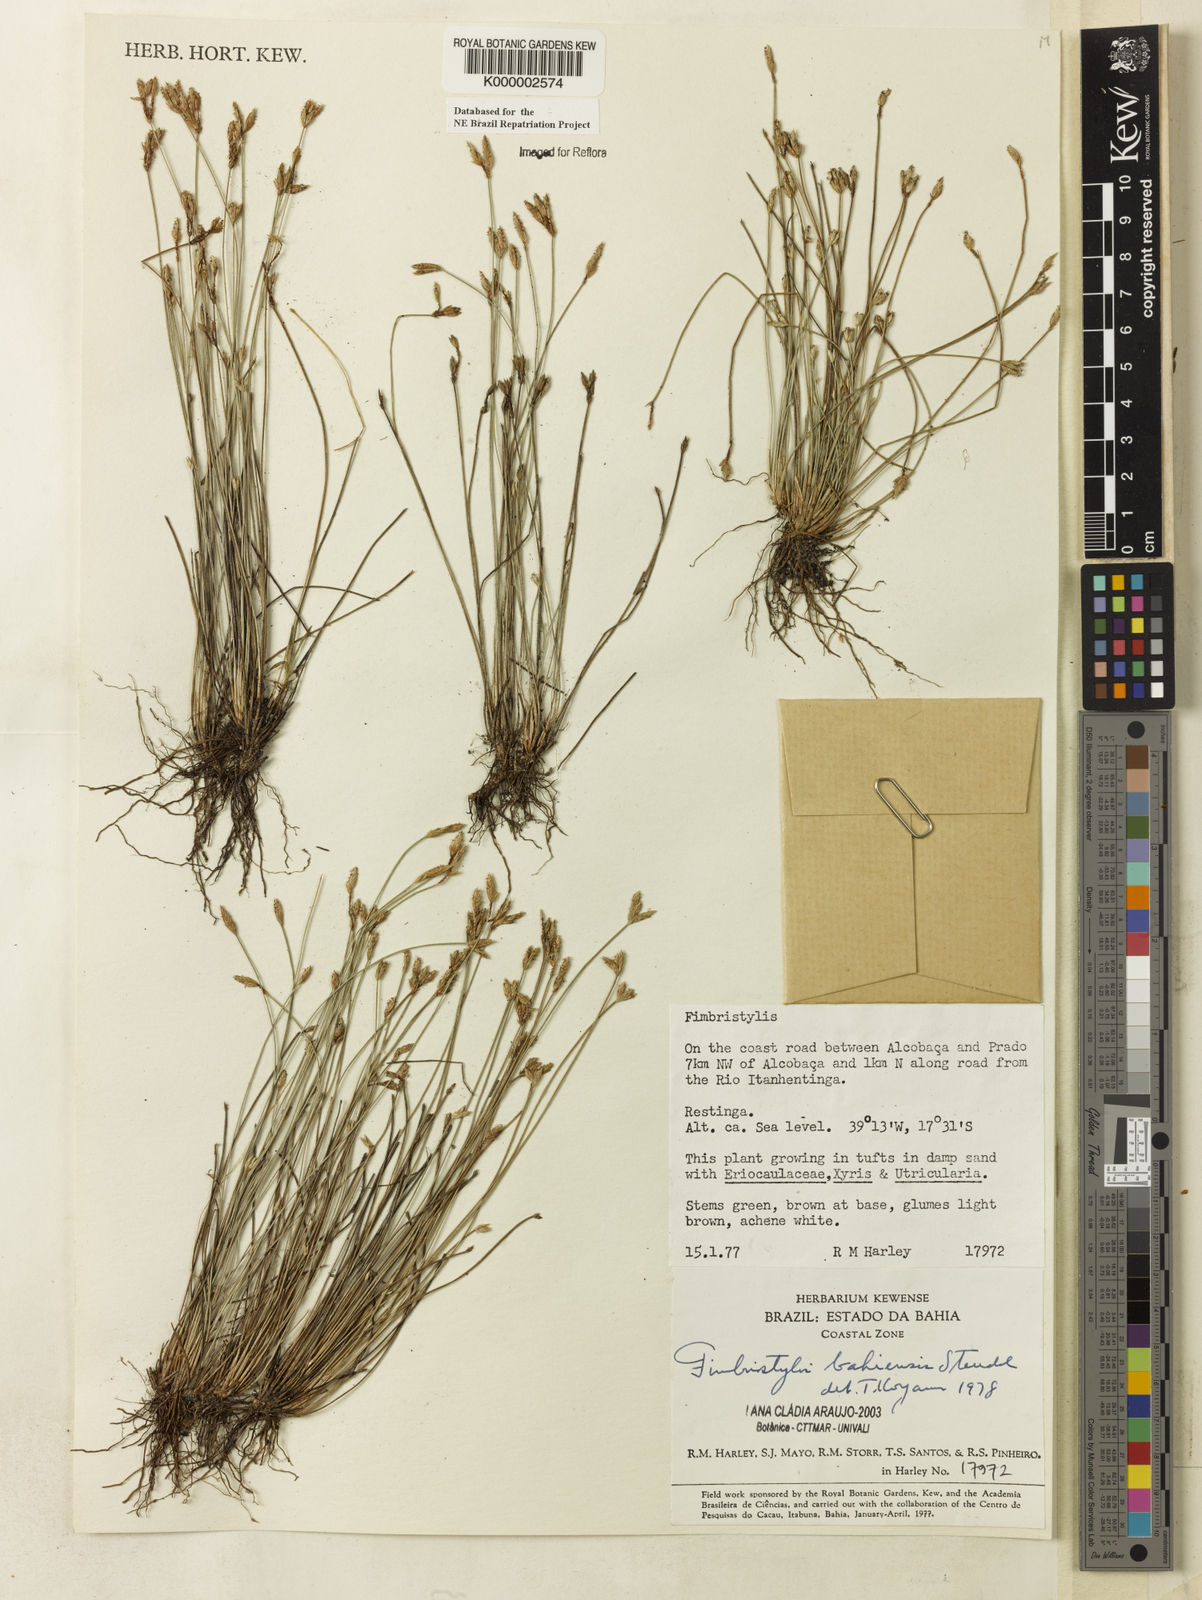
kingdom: Plantae
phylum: Tracheophyta
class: Liliopsida
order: Poales
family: Cyperaceae
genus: Fimbristylis
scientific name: Fimbristylis bahiensis
